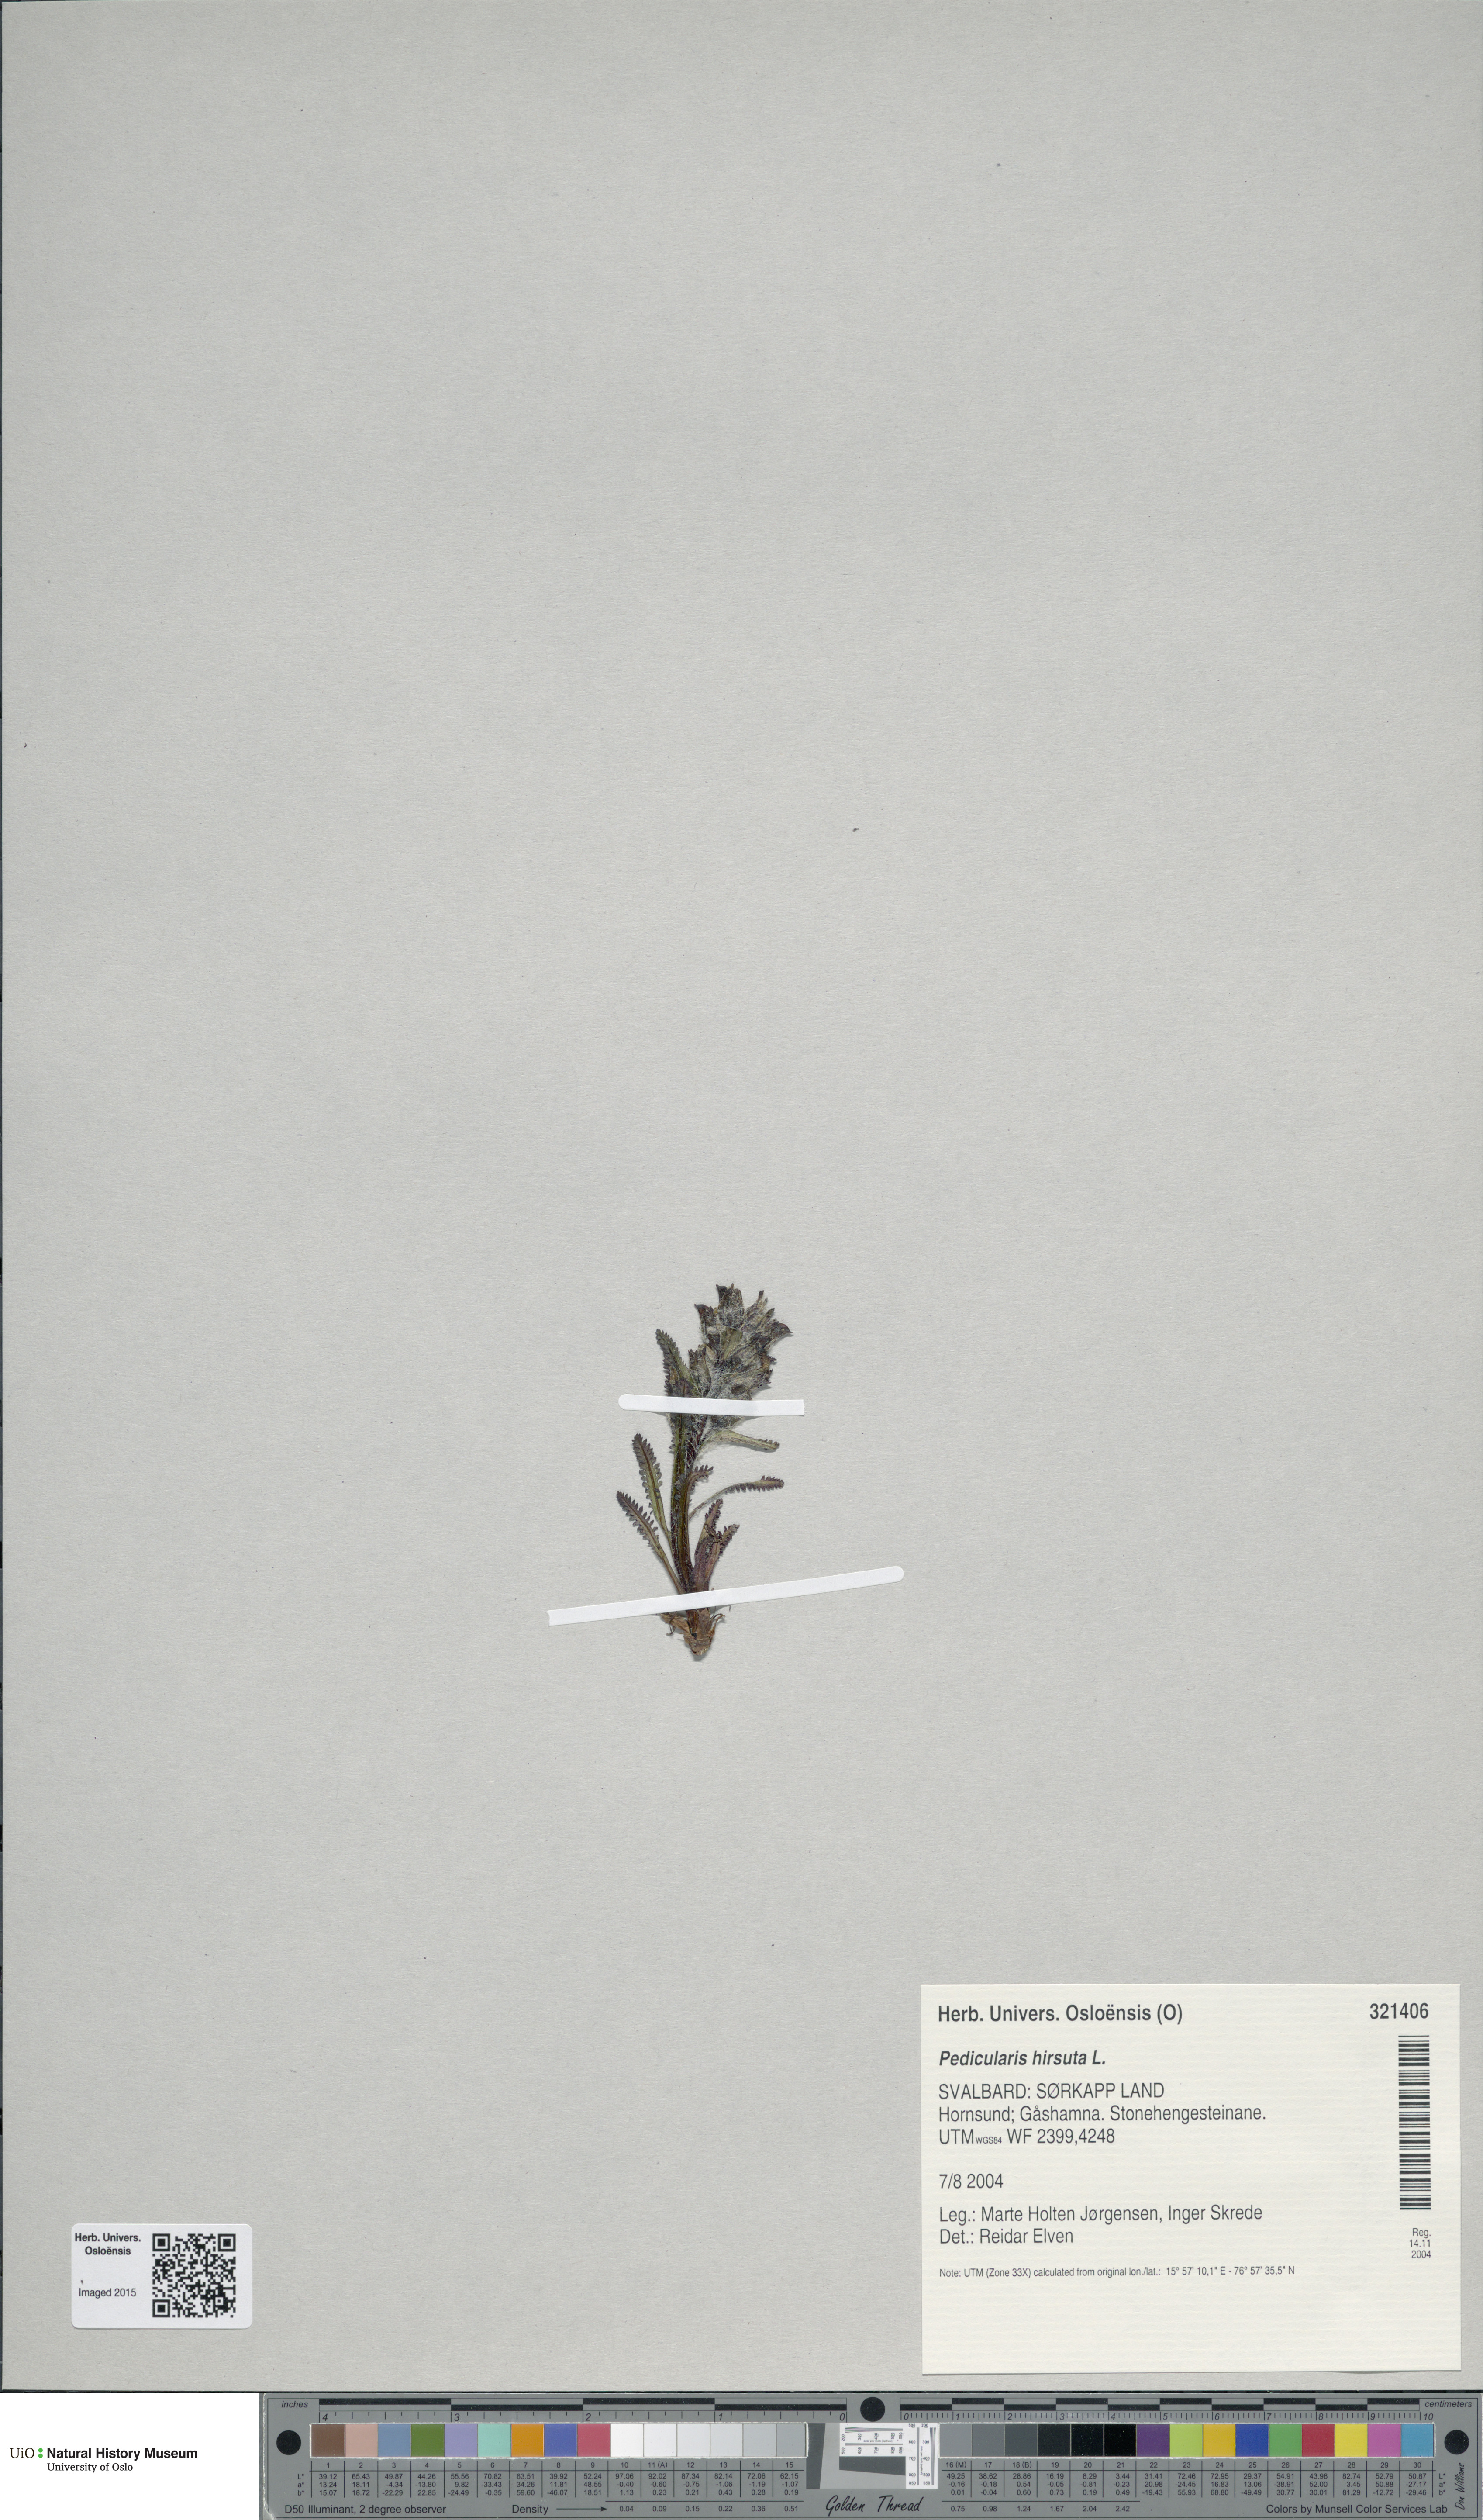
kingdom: Plantae
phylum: Tracheophyta
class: Magnoliopsida
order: Lamiales
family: Orobanchaceae
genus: Pedicularis
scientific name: Pedicularis hirsuta
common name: Hairy lousewort
